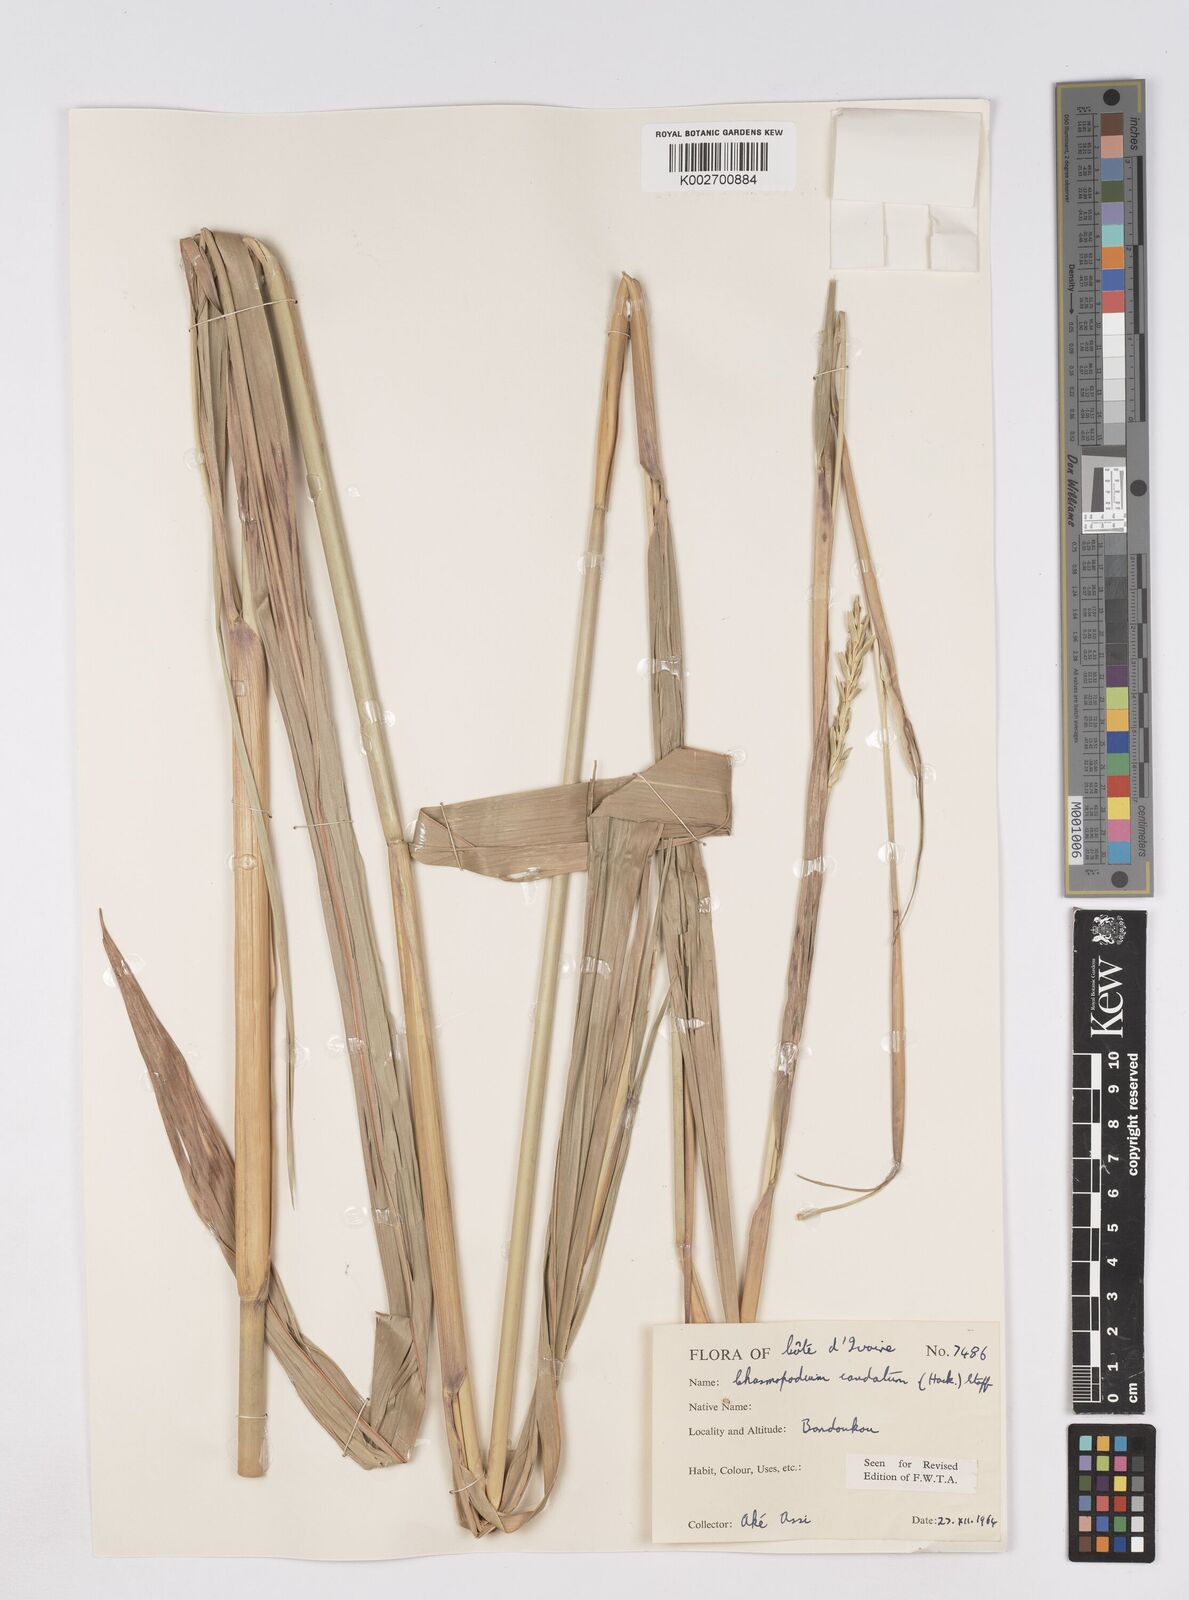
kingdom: Plantae
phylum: Tracheophyta
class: Liliopsida
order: Poales
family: Poaceae
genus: Chasmopodium
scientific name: Chasmopodium caudatum
